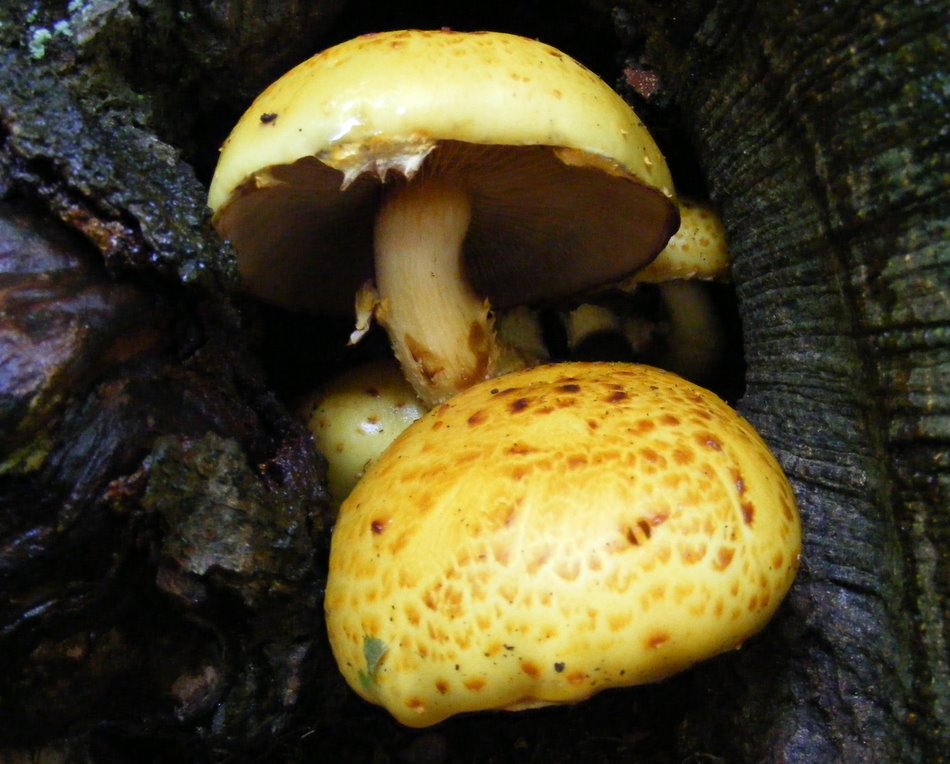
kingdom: Fungi
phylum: Basidiomycota
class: Agaricomycetes
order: Agaricales
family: Strophariaceae
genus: Pholiota
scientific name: Pholiota adiposa
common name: højtsiddende skælhat
